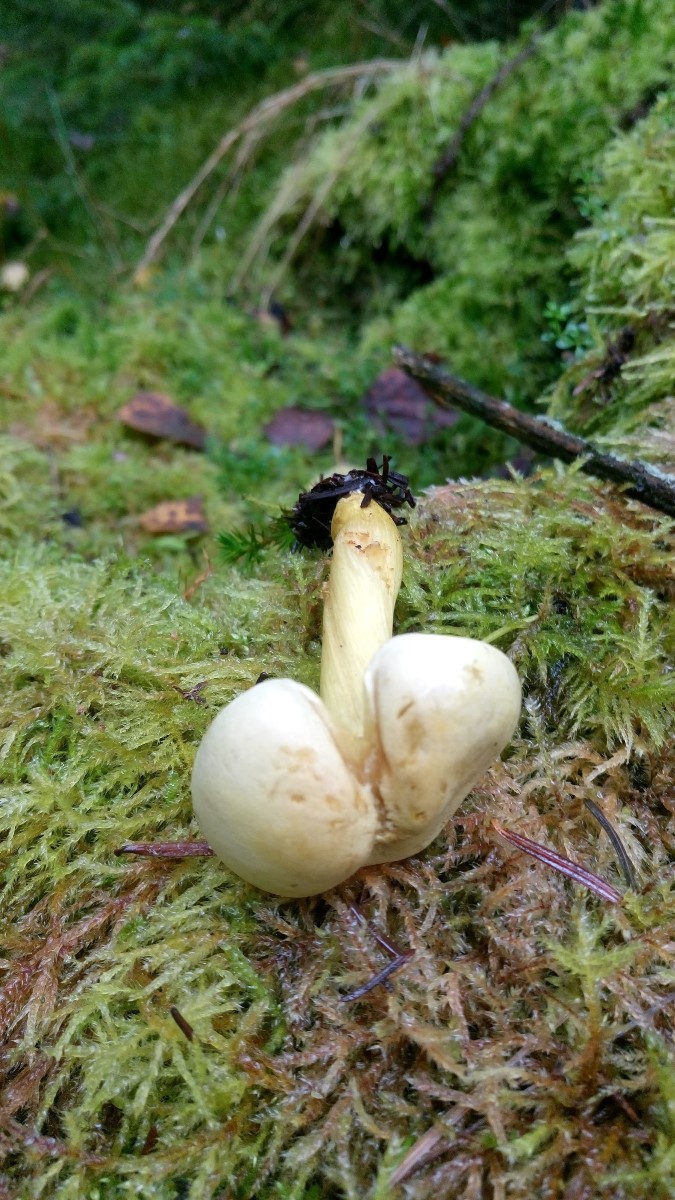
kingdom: Fungi
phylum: Basidiomycota
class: Agaricomycetes
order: Agaricales
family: Tricholomataceae
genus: Tricholoma
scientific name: Tricholoma sulphureum
